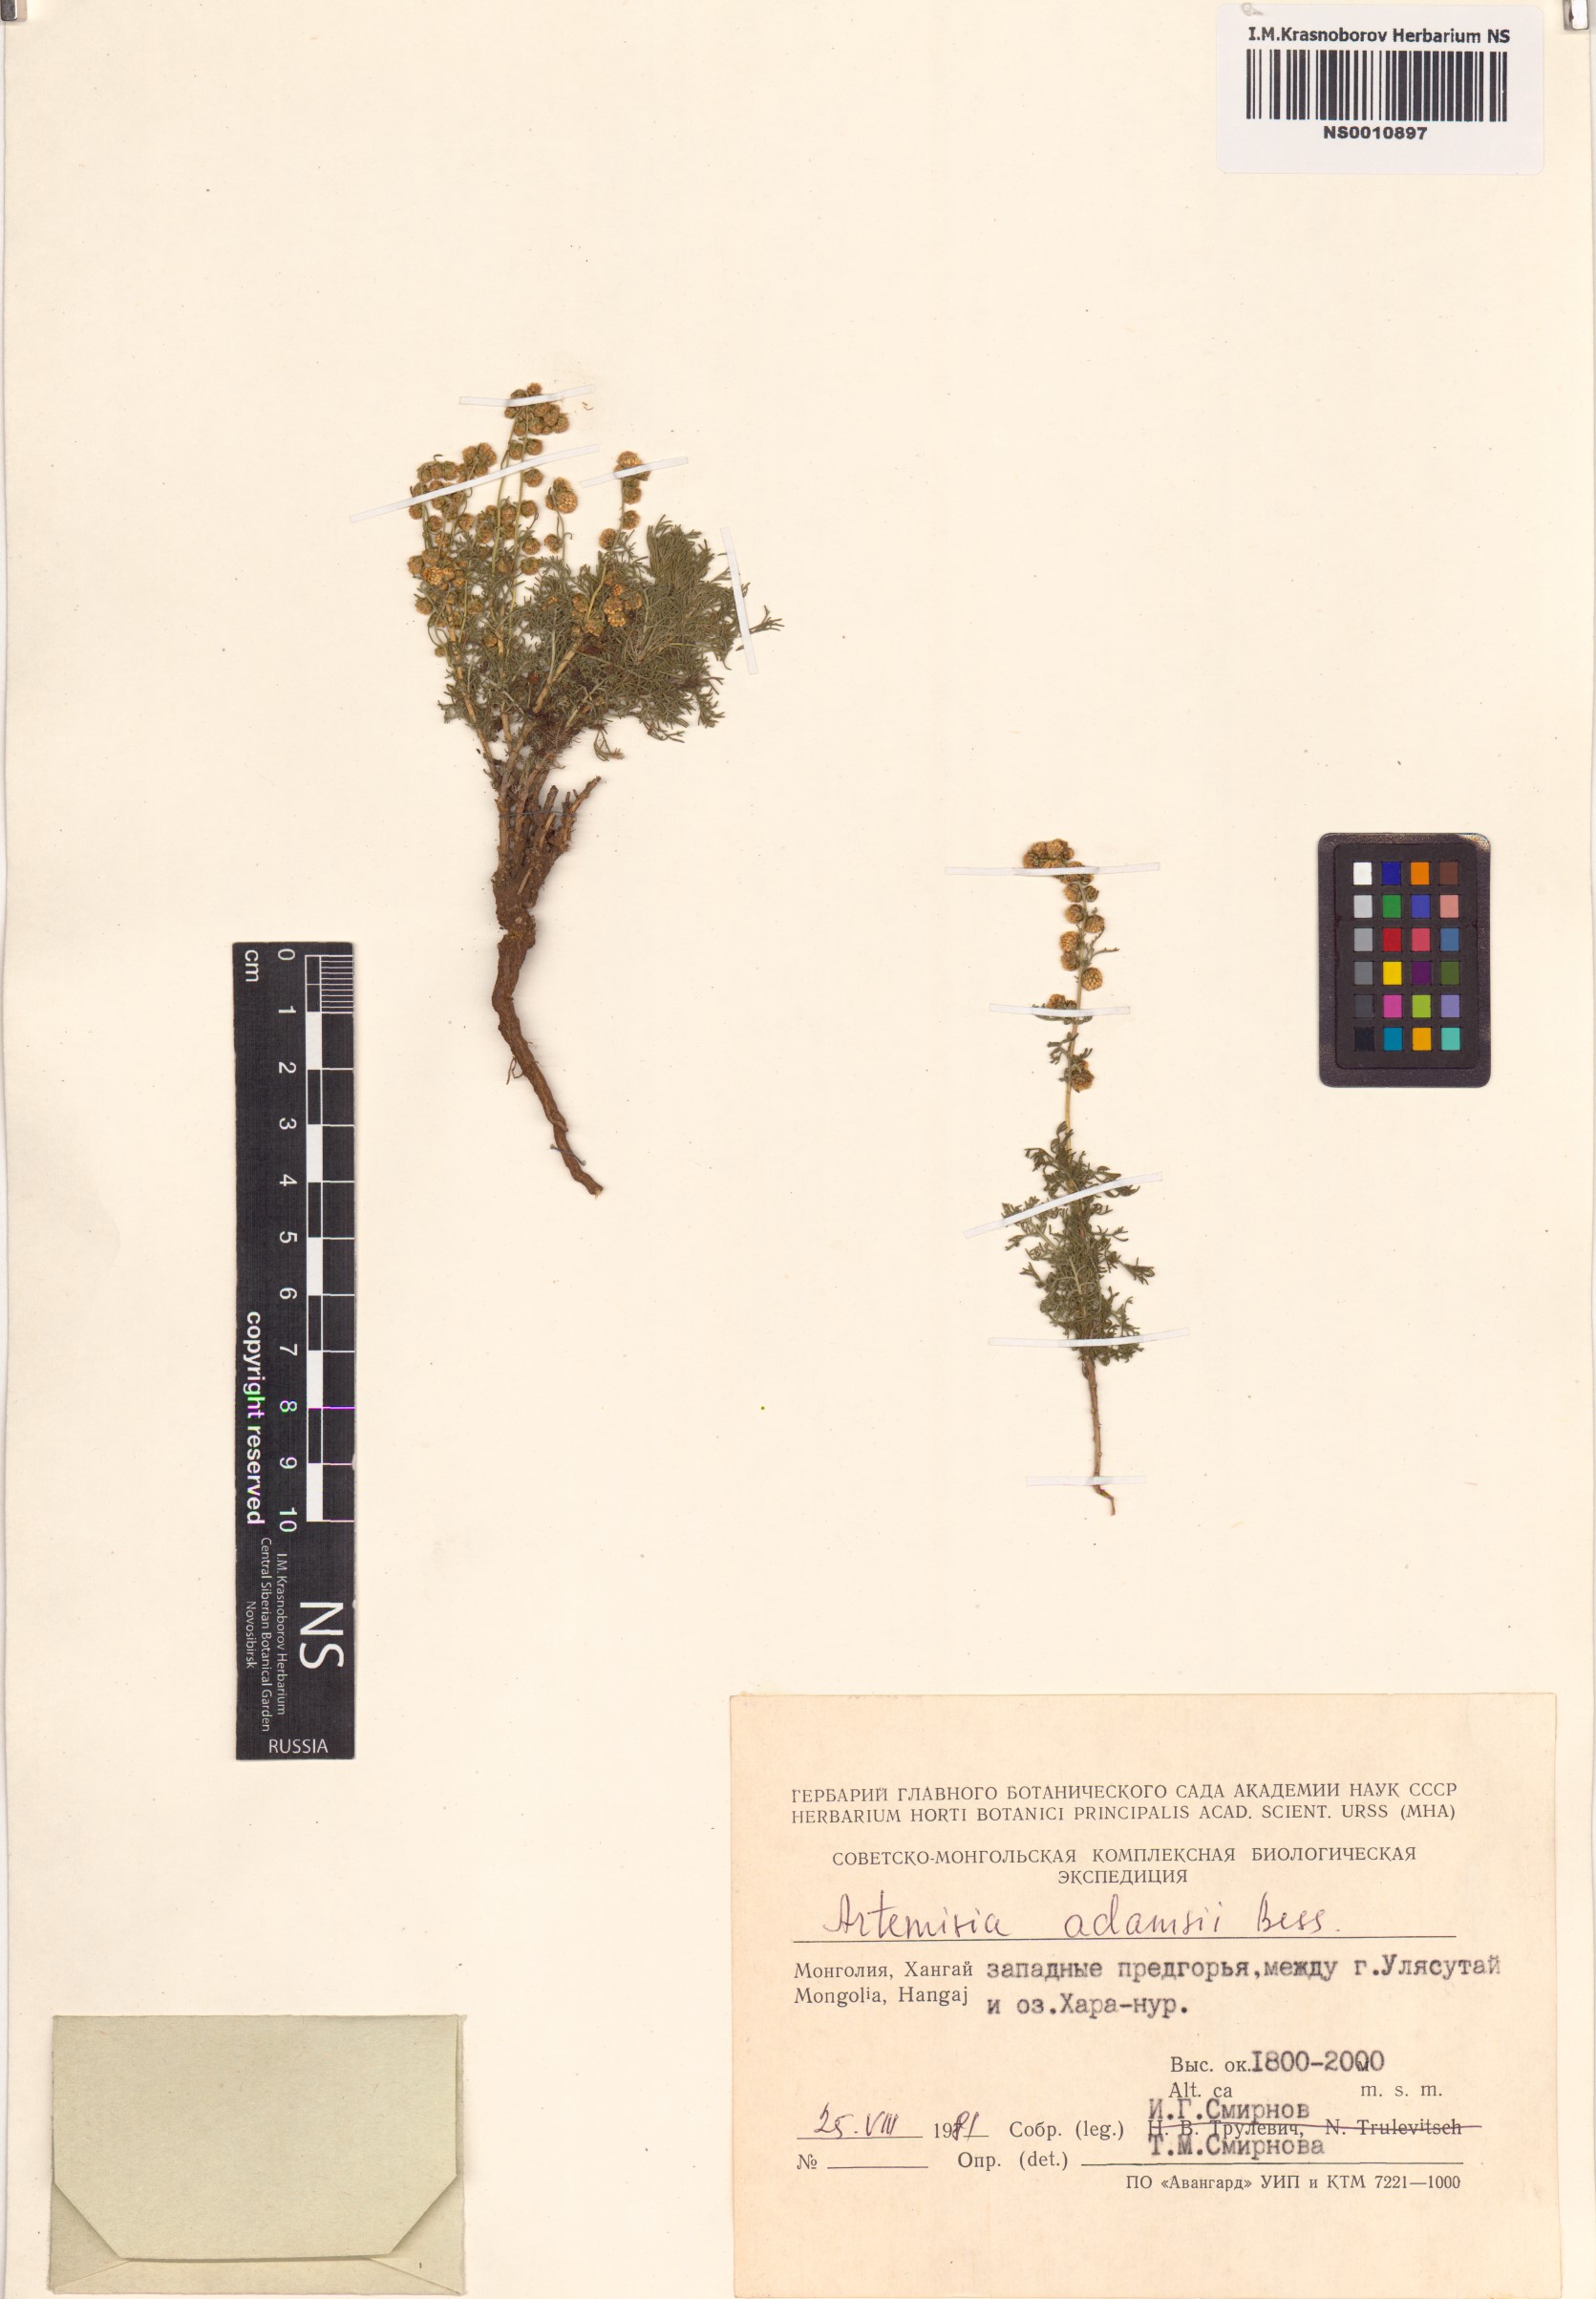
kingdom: Plantae
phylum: Tracheophyta
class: Magnoliopsida
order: Asterales
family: Asteraceae
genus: Artemisia
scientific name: Artemisia adamsii
